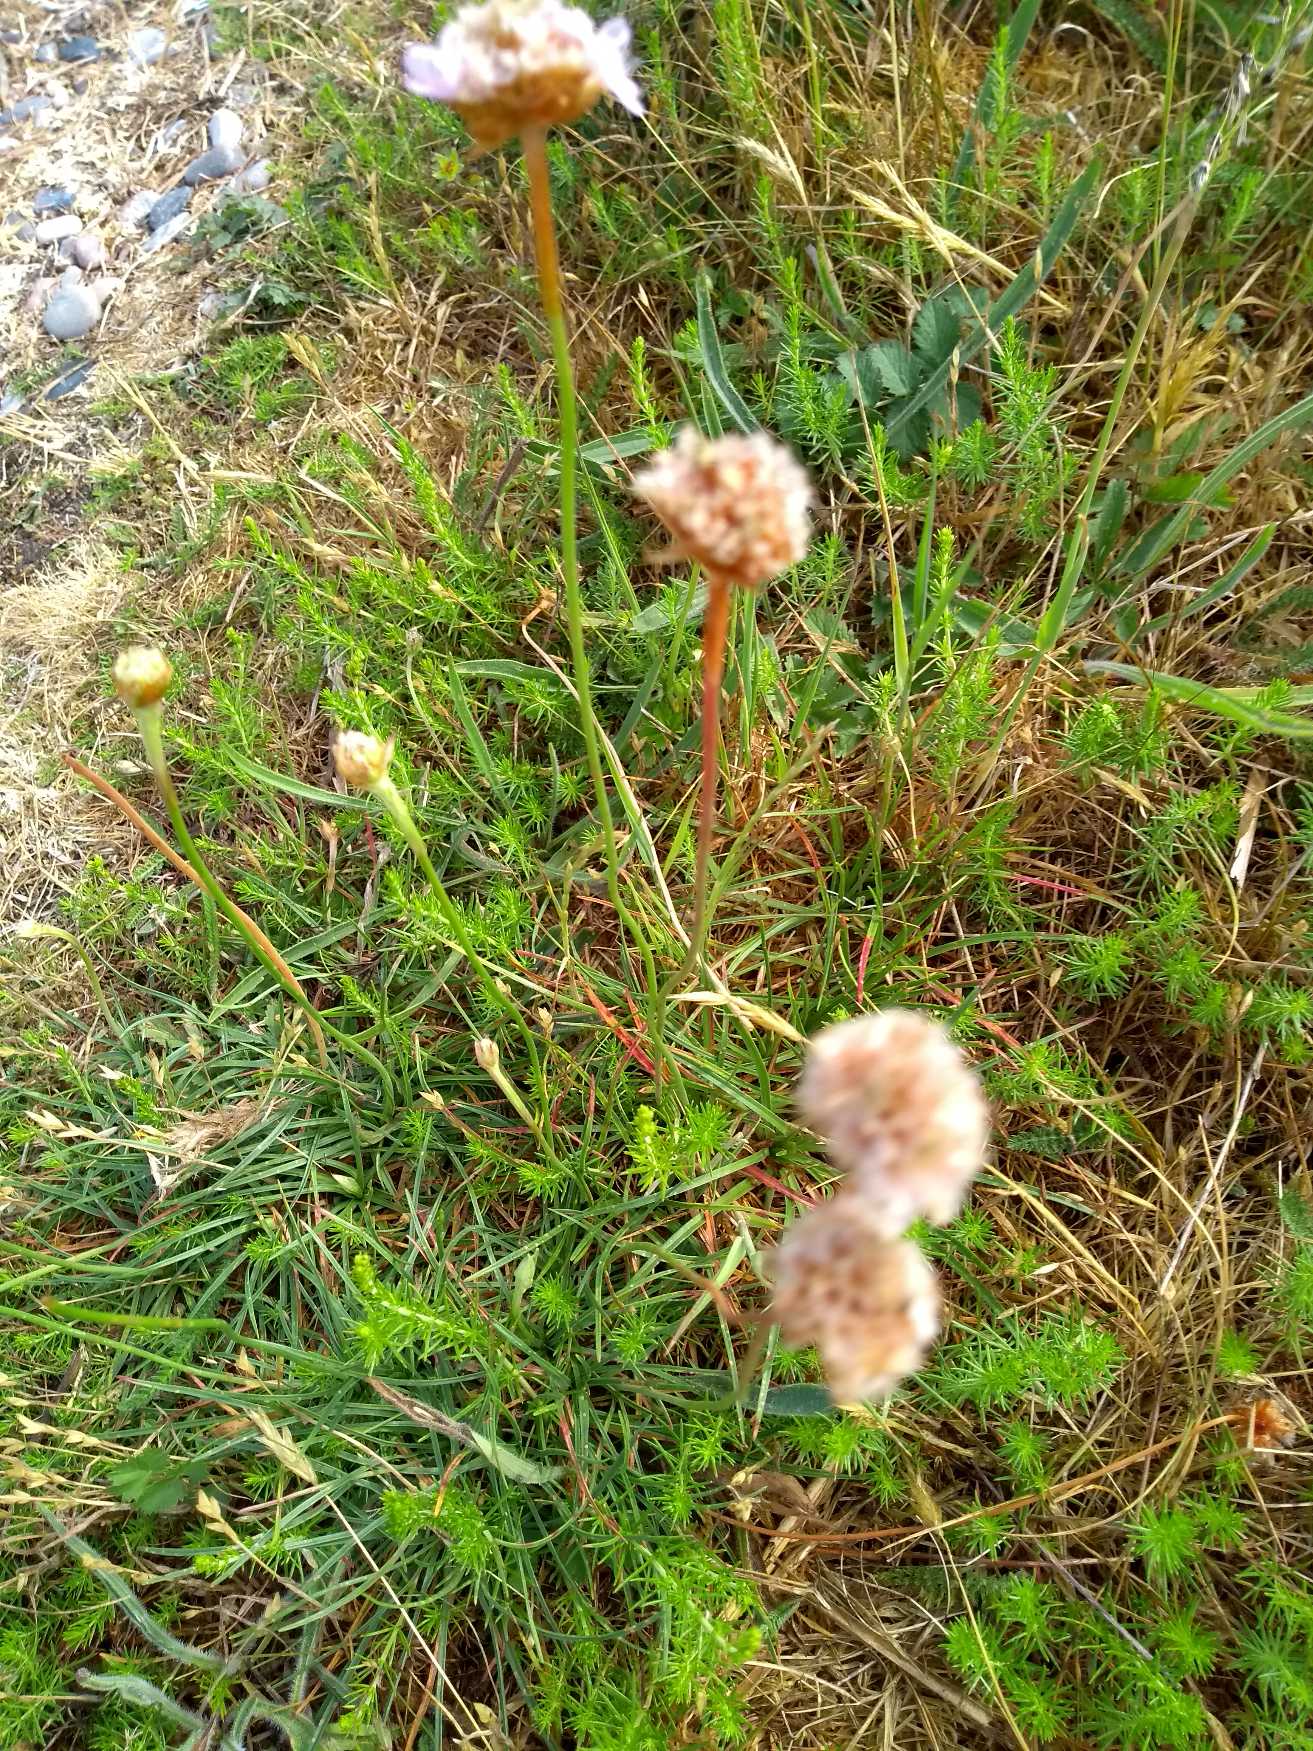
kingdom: Plantae
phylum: Tracheophyta
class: Magnoliopsida
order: Caryophyllales
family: Plumbaginaceae
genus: Armeria
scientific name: Armeria maritima
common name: Engelskgræs
